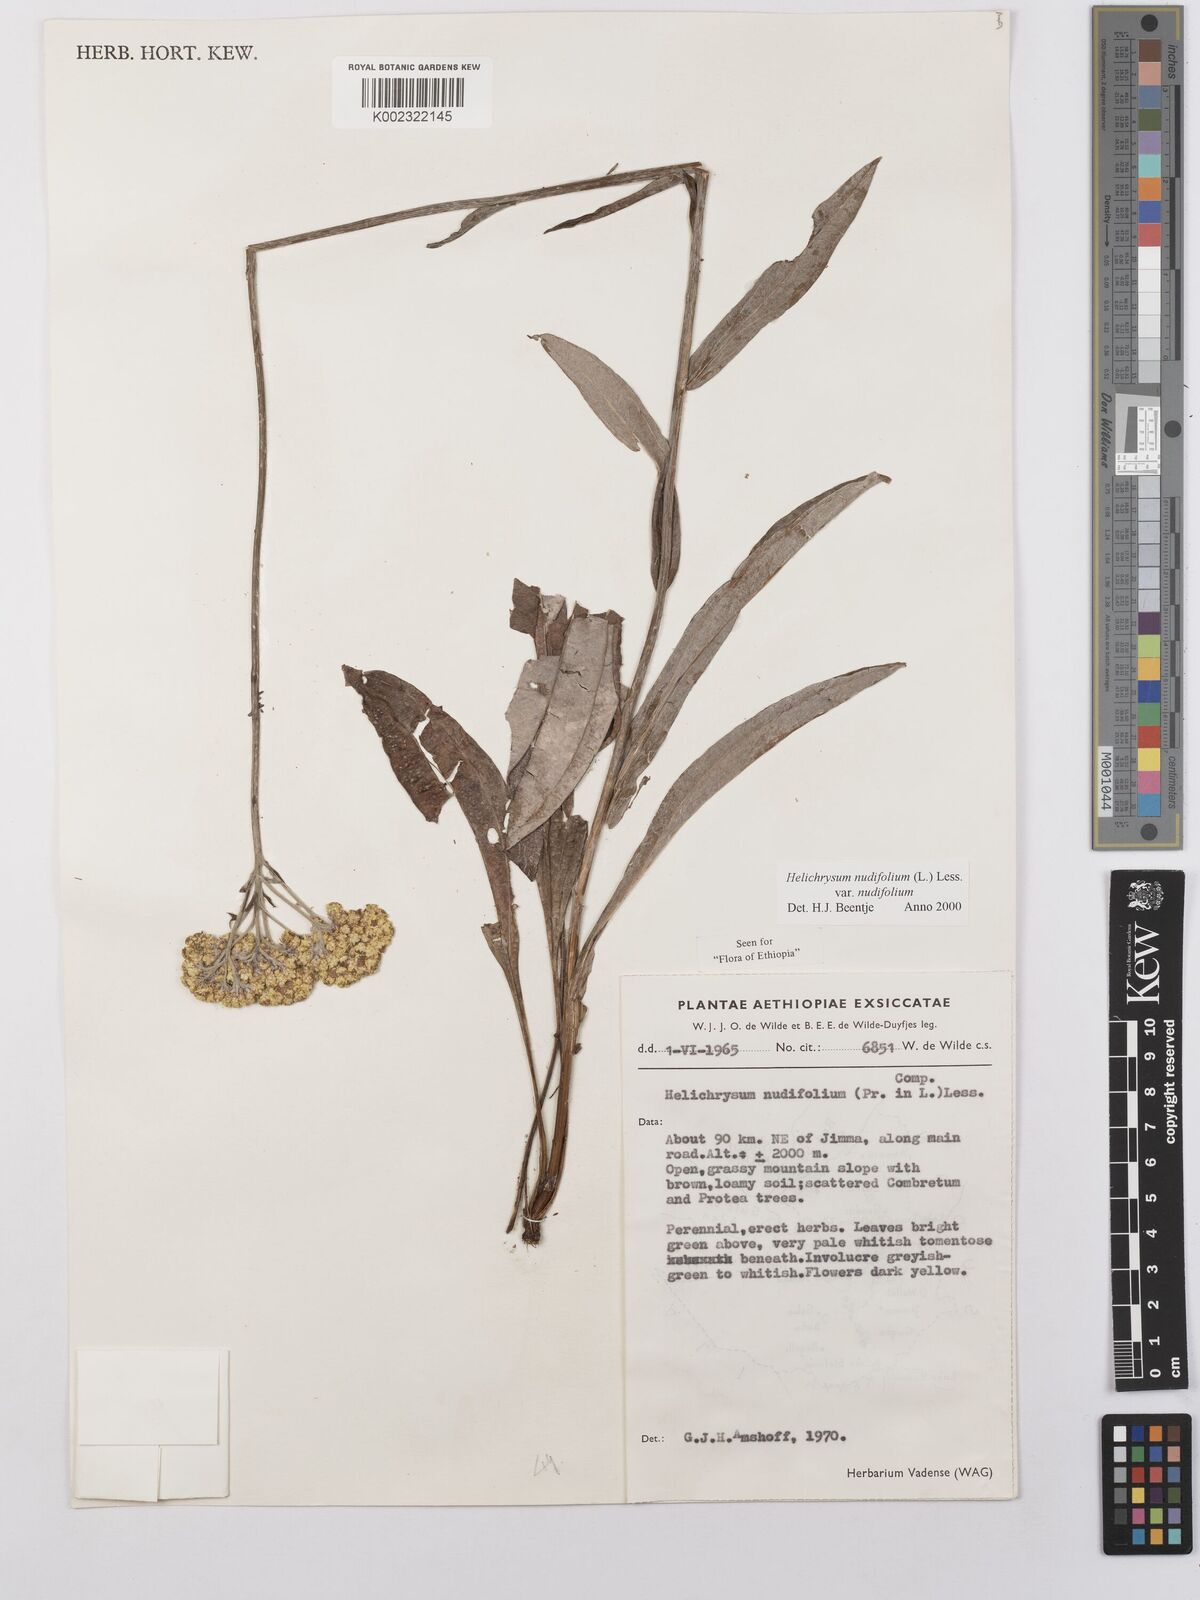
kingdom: Plantae
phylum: Tracheophyta
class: Magnoliopsida
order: Asterales
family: Asteraceae
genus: Helichrysum
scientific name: Helichrysum nudifolium
